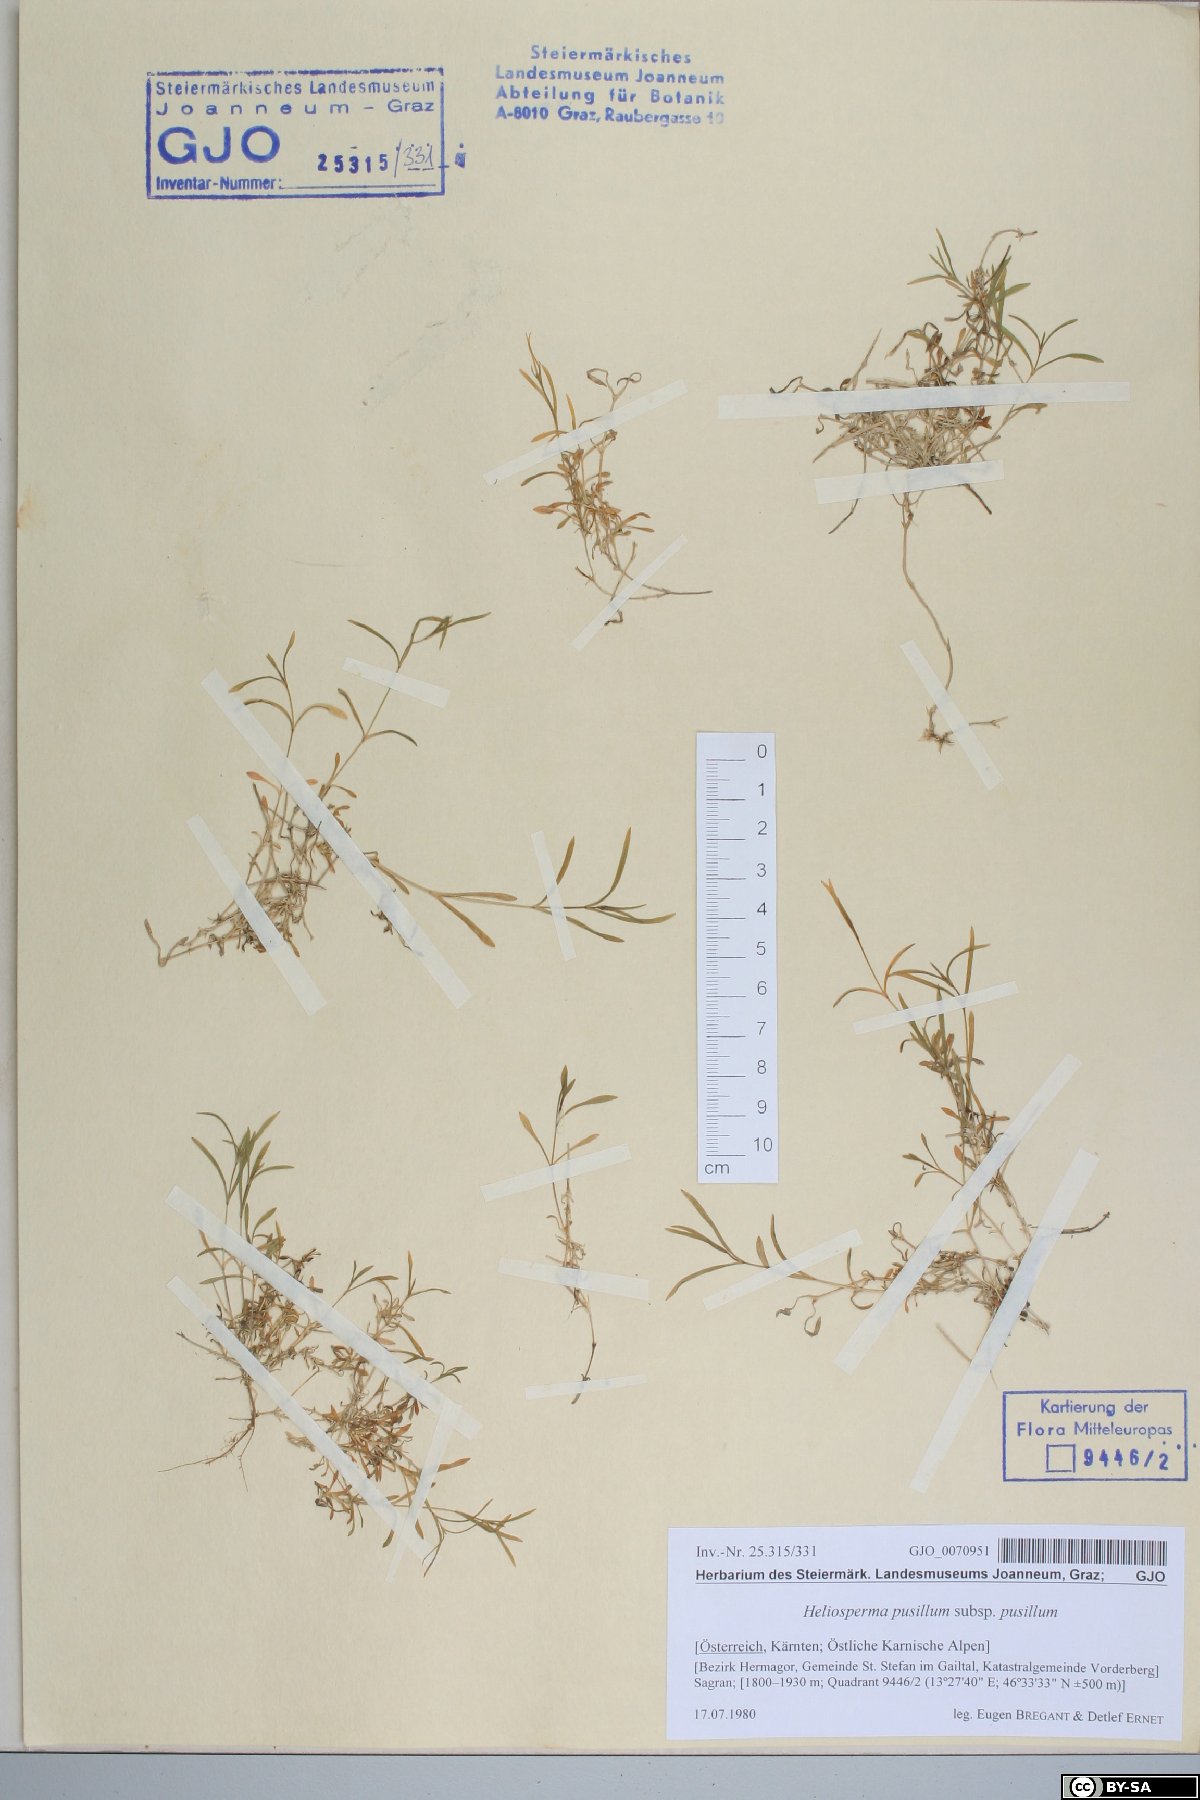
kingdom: Plantae
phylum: Tracheophyta
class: Magnoliopsida
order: Caryophyllales
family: Caryophyllaceae
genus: Heliosperma
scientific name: Heliosperma pusillum
